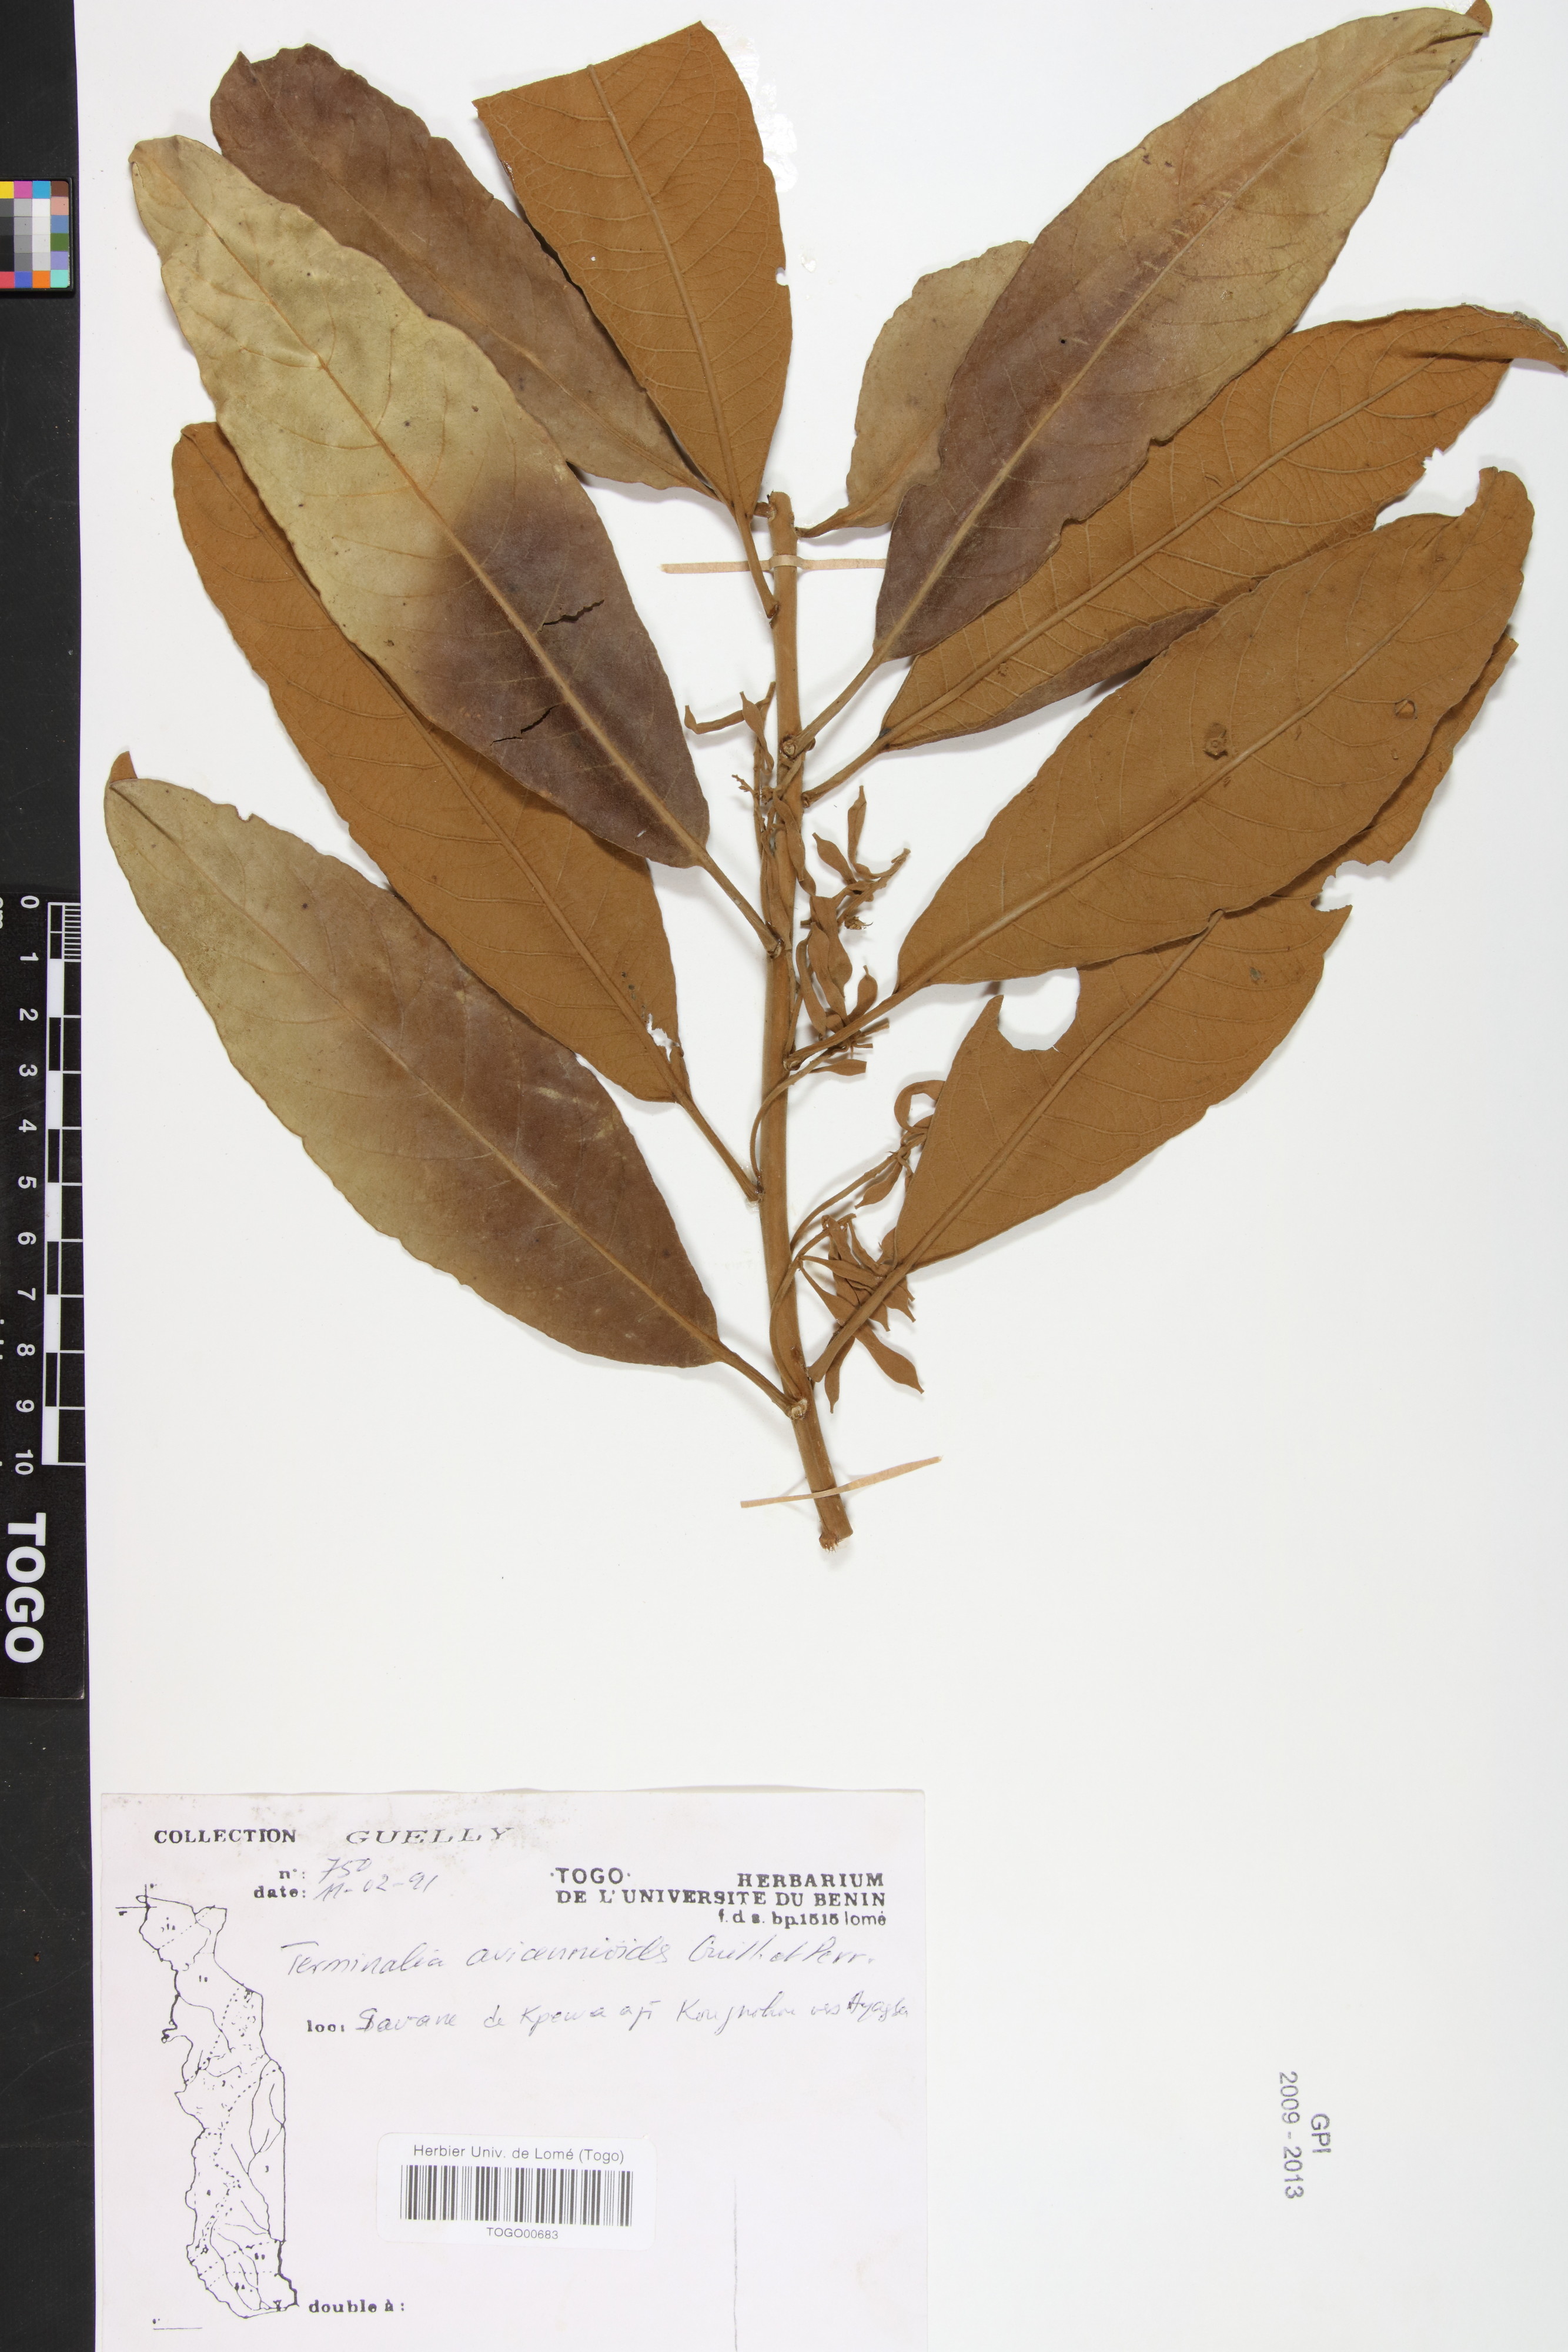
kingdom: Plantae
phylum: Tracheophyta
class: Magnoliopsida
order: Myrtales
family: Combretaceae
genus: Terminalia
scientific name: Terminalia avicennioides
